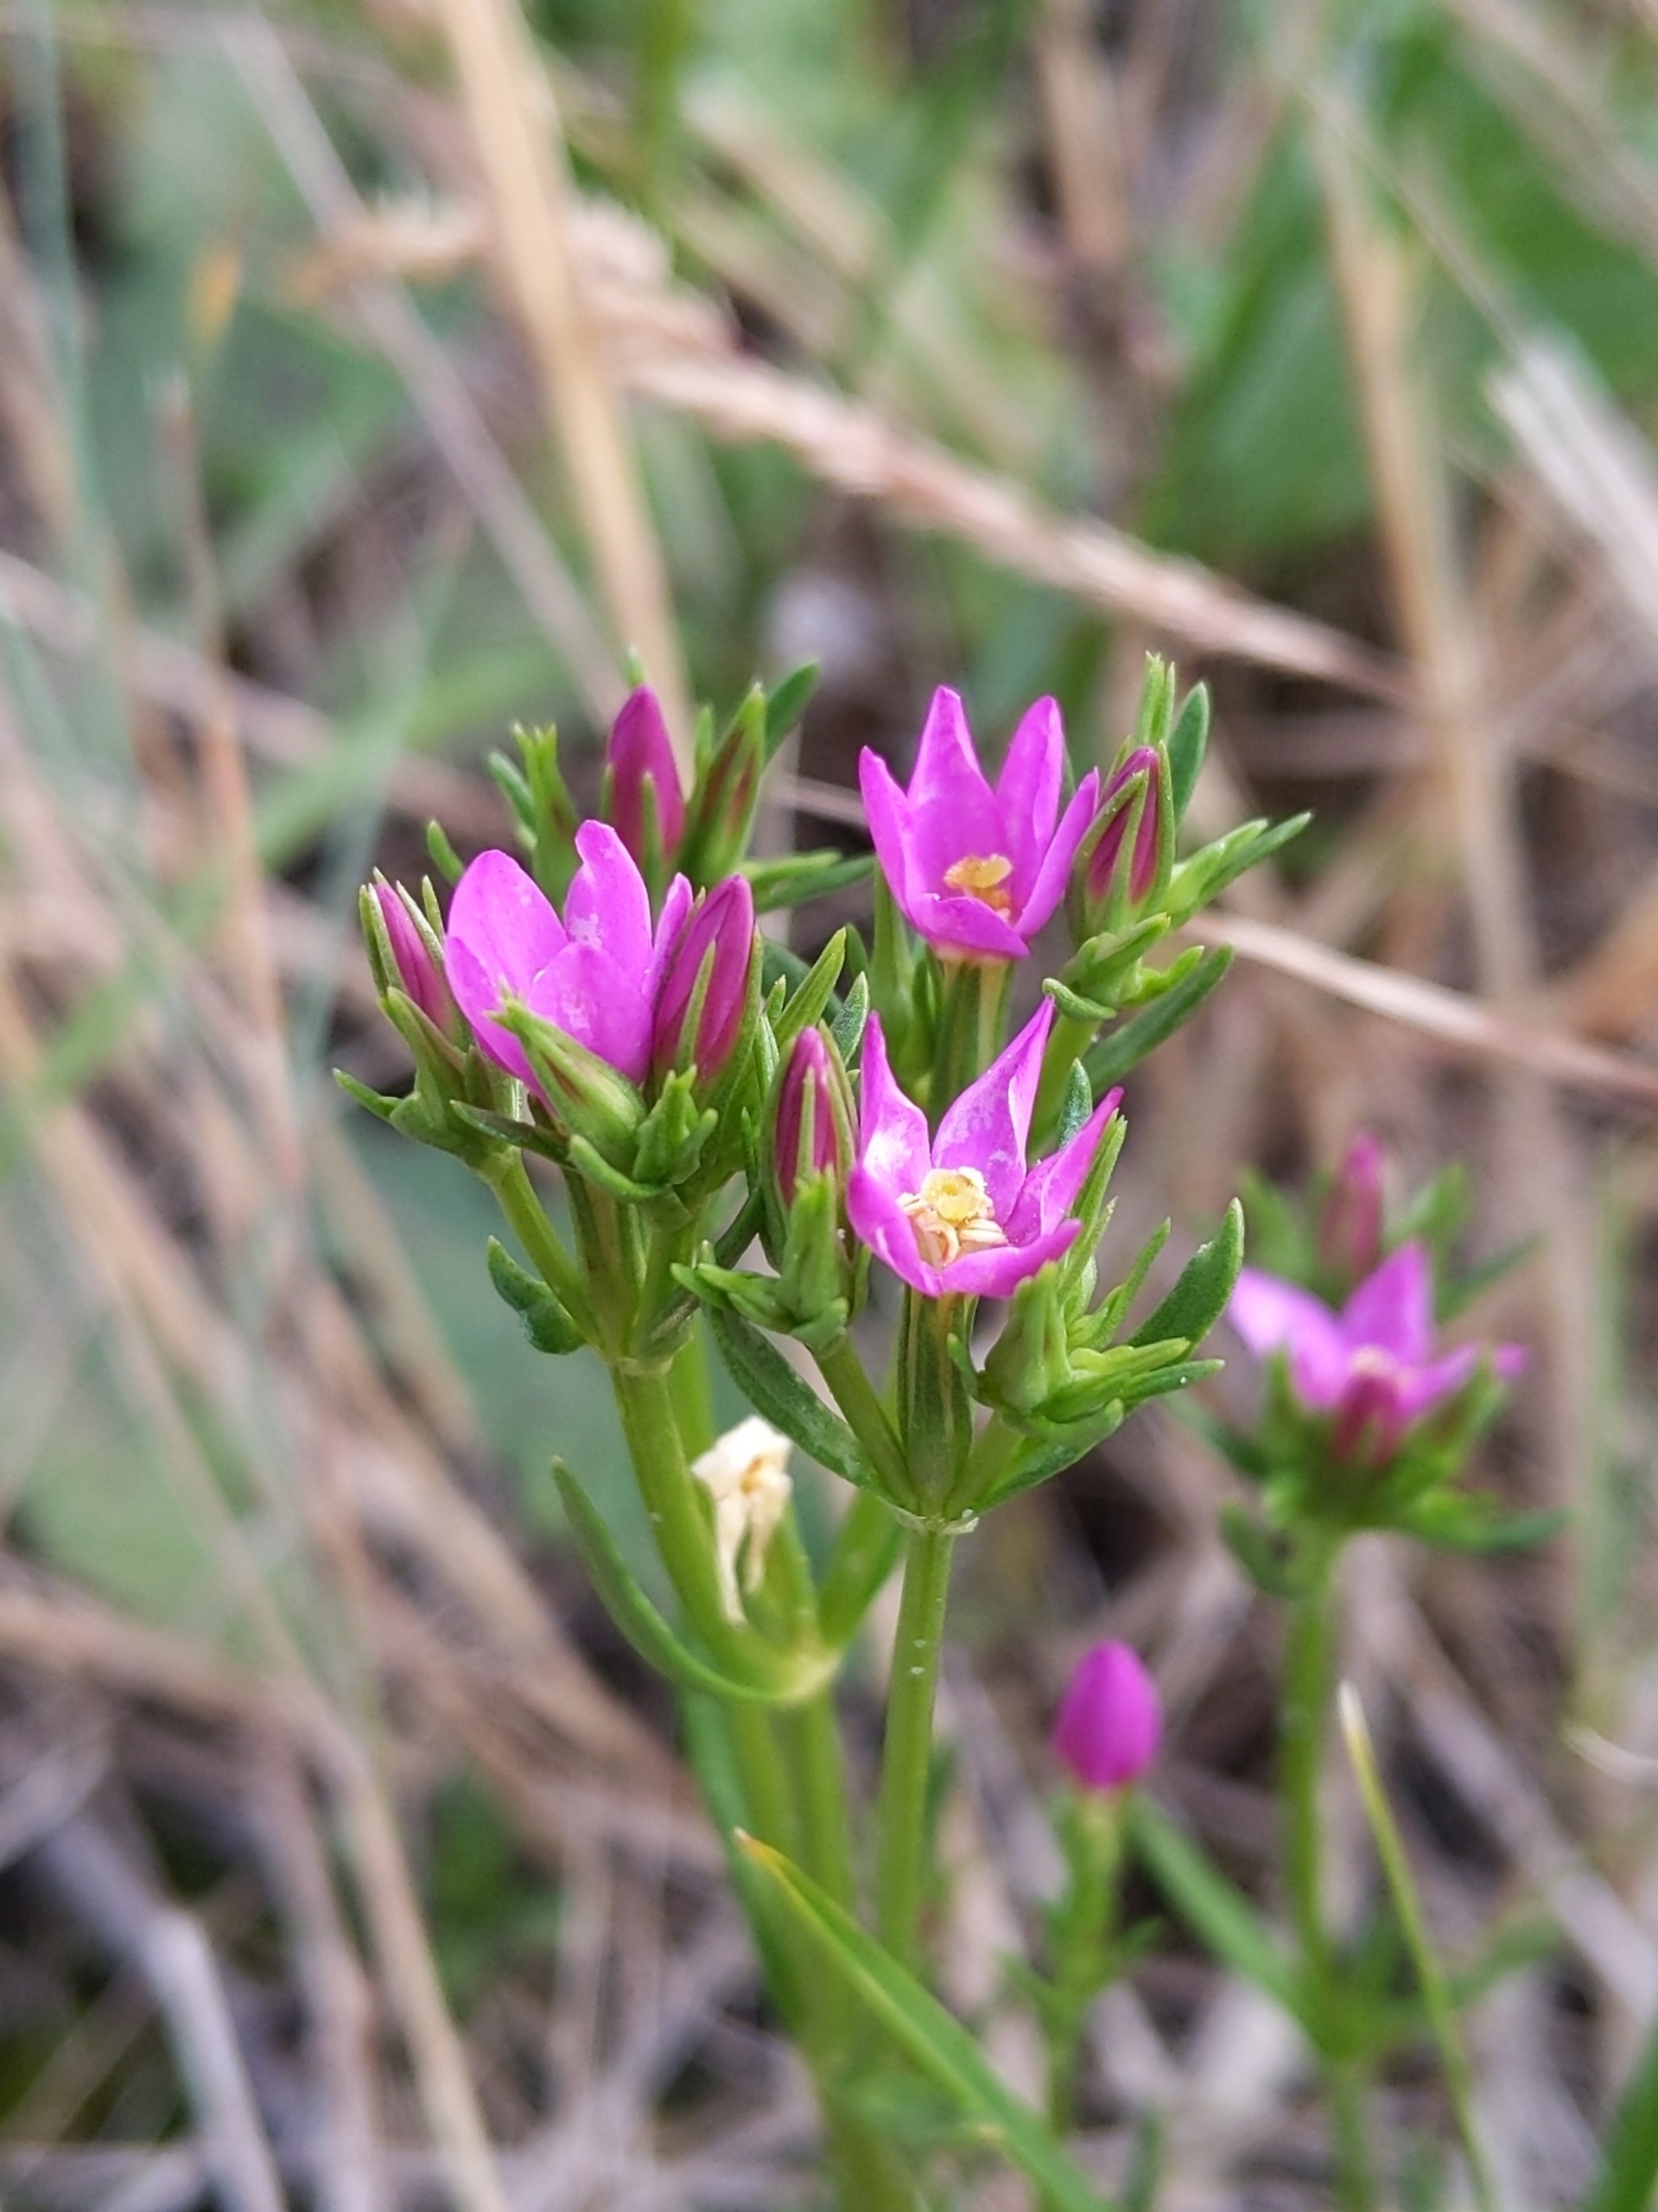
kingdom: Plantae
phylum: Tracheophyta
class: Magnoliopsida
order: Gentianales
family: Gentianaceae
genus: Centaurium
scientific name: Centaurium littorale
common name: Strand-tusindgylden
